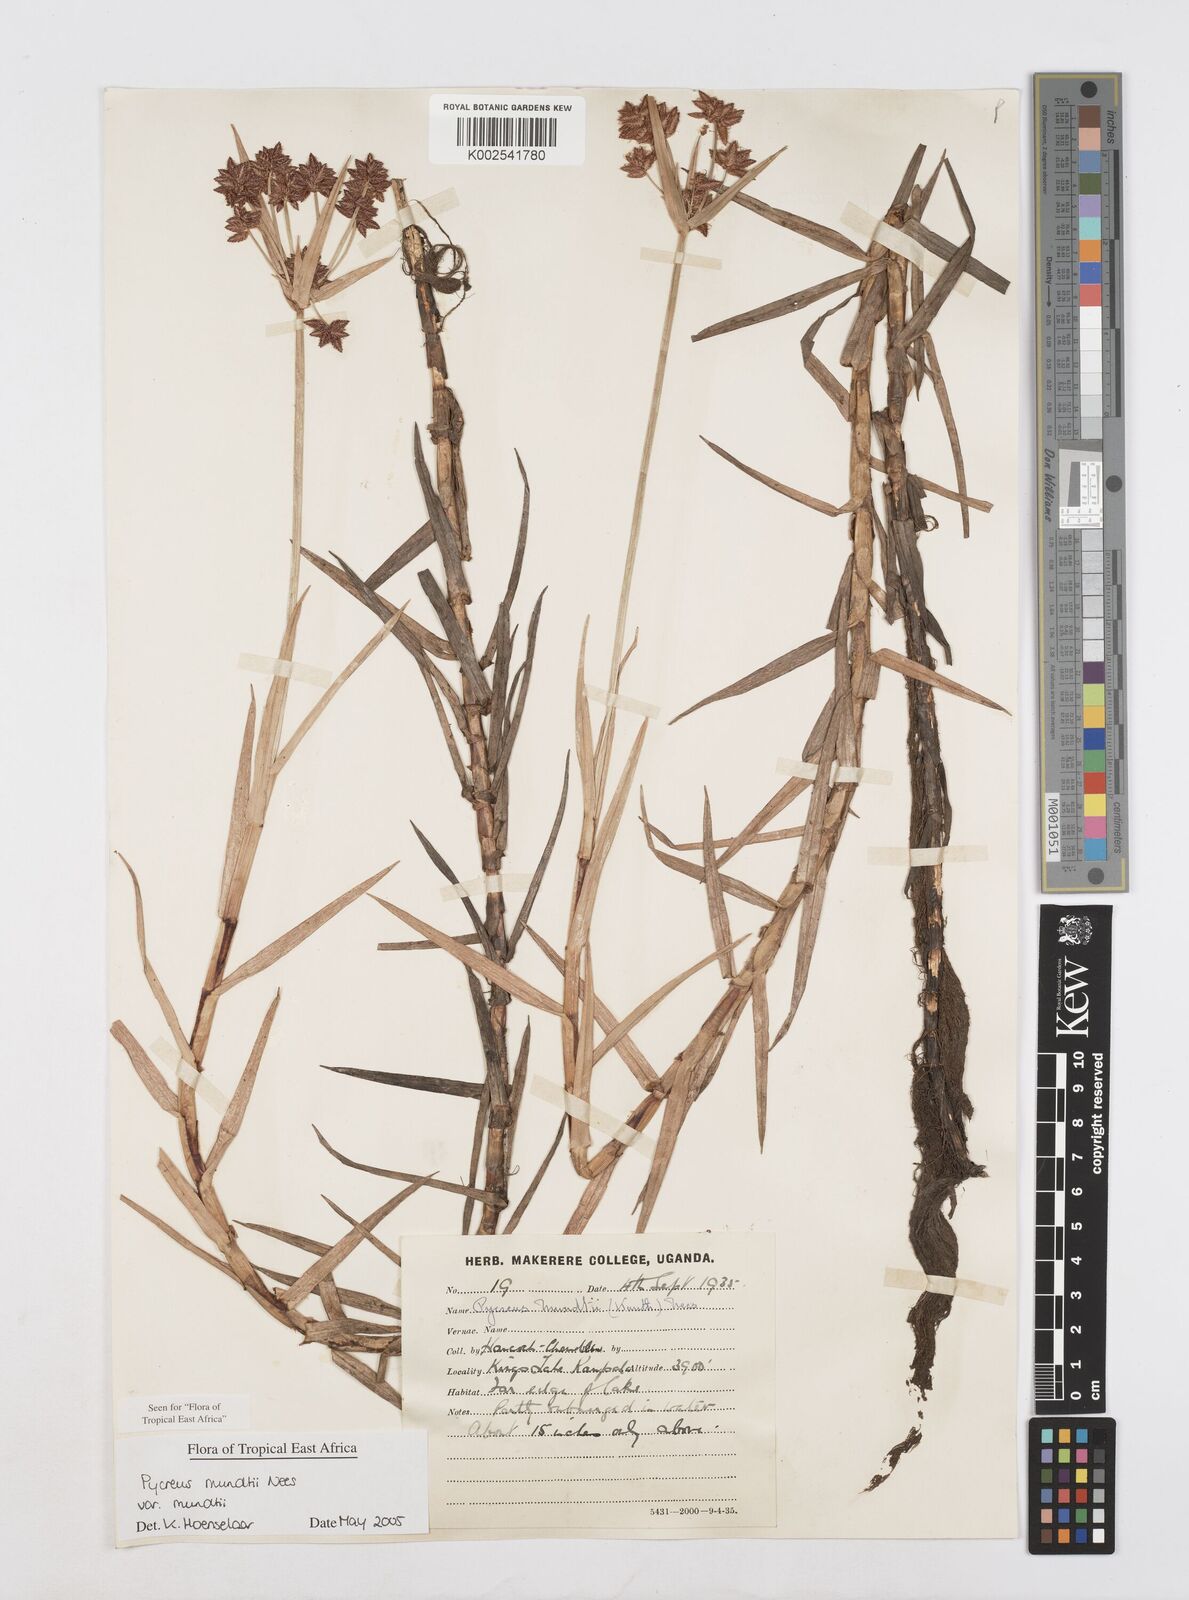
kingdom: Plantae
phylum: Tracheophyta
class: Liliopsida
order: Poales
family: Cyperaceae
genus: Cyperus
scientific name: Cyperus mundii
